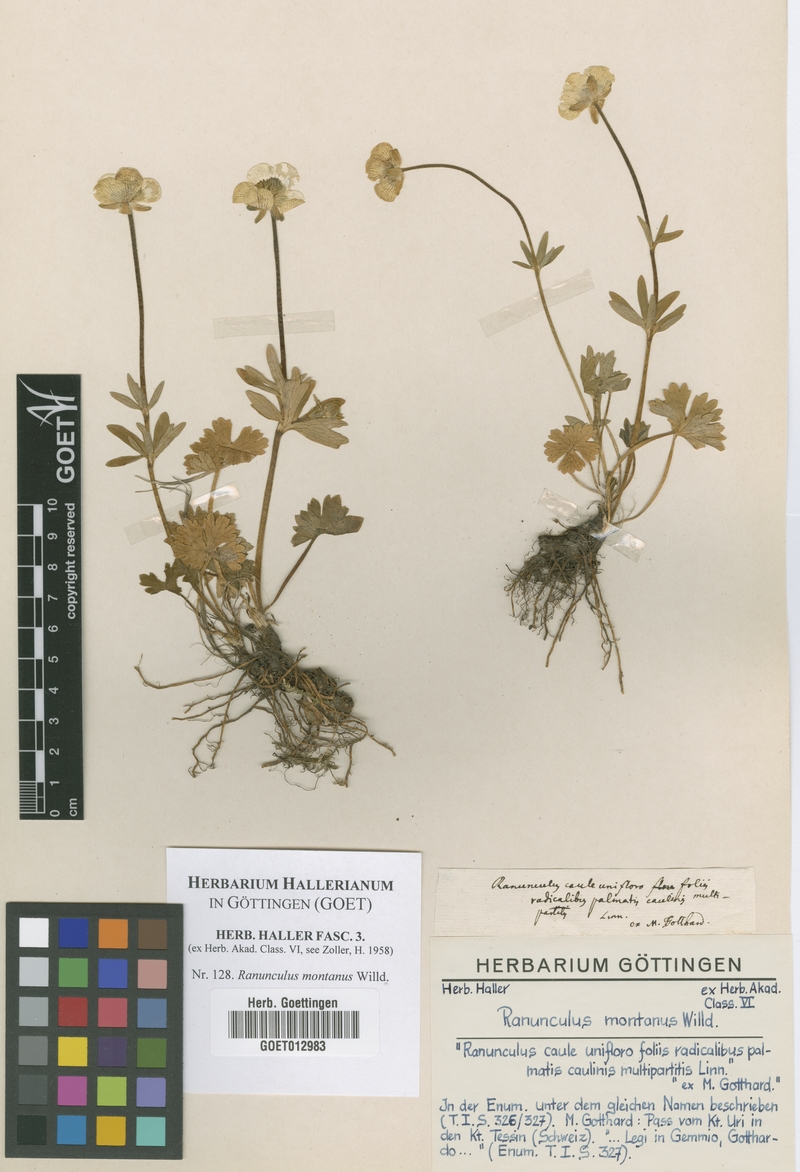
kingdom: Plantae
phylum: Tracheophyta
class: Magnoliopsida
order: Ranunculales
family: Ranunculaceae
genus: Ranunculus
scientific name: Ranunculus montanus
